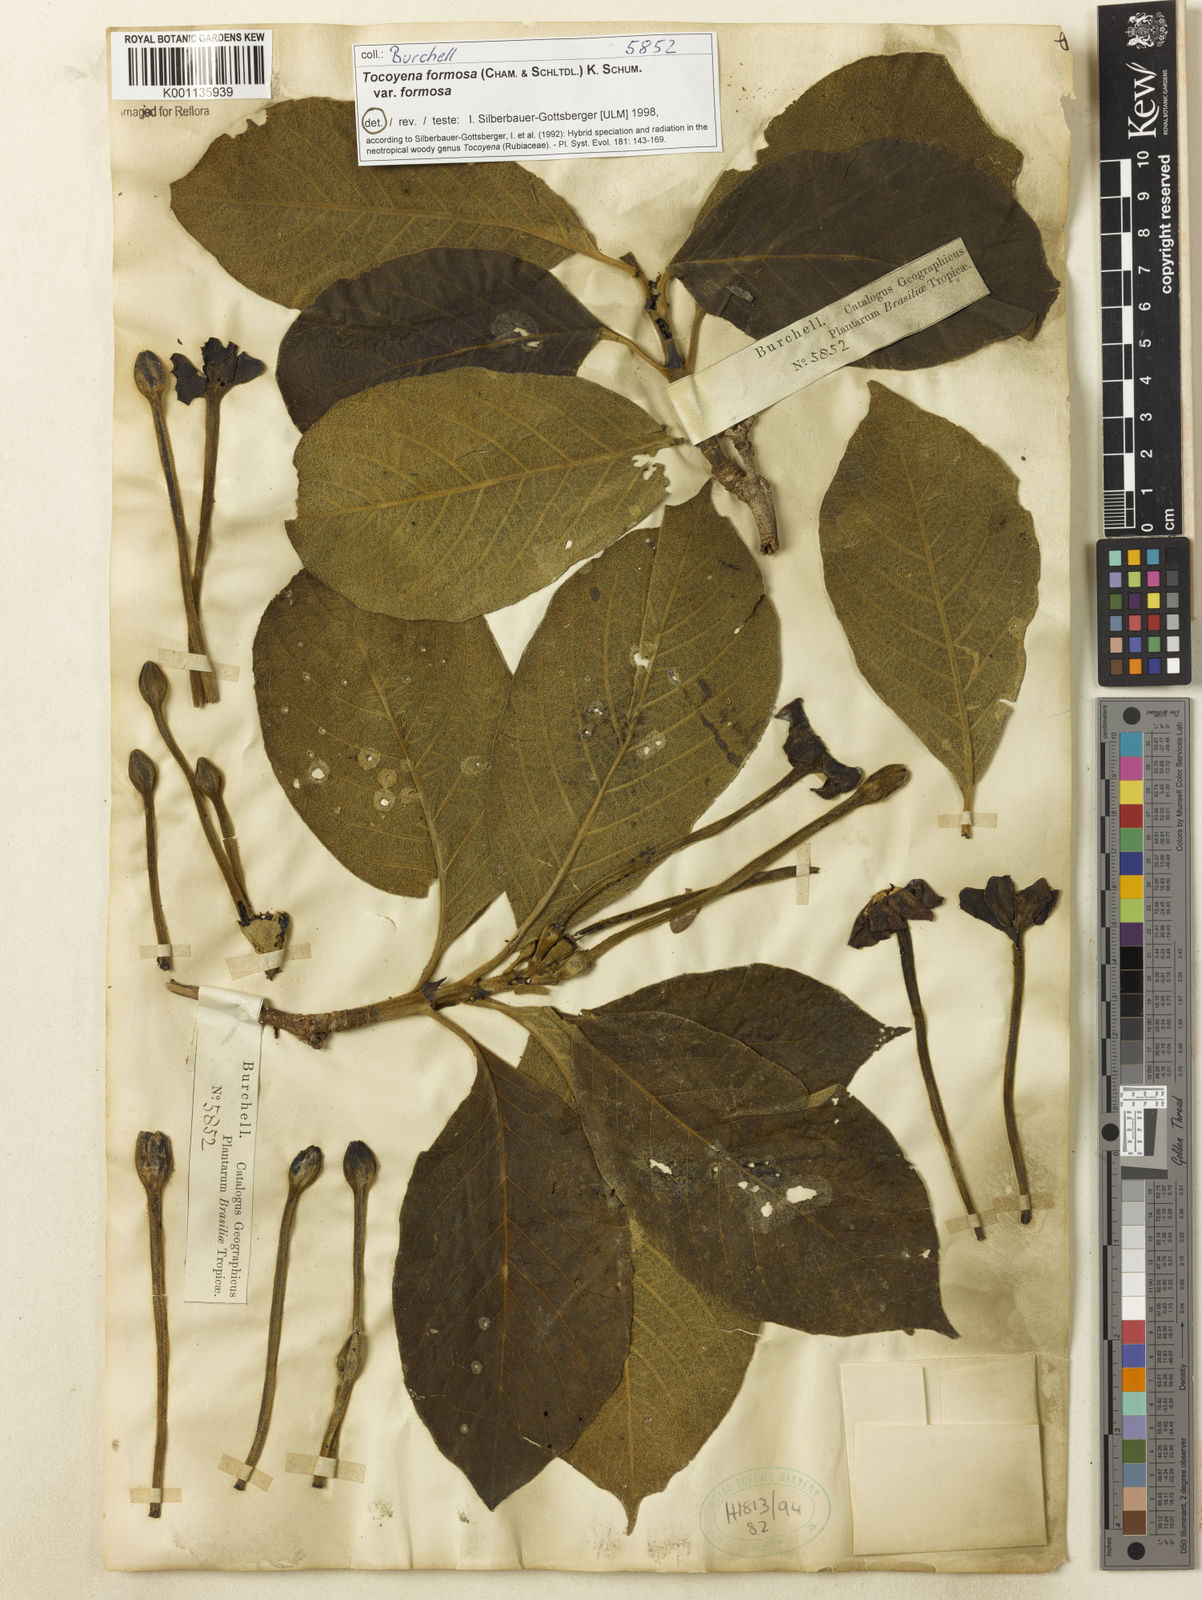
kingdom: Plantae
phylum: Tracheophyta
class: Magnoliopsida
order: Gentianales
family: Rubiaceae
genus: Tocoyena
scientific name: Tocoyena formosa
